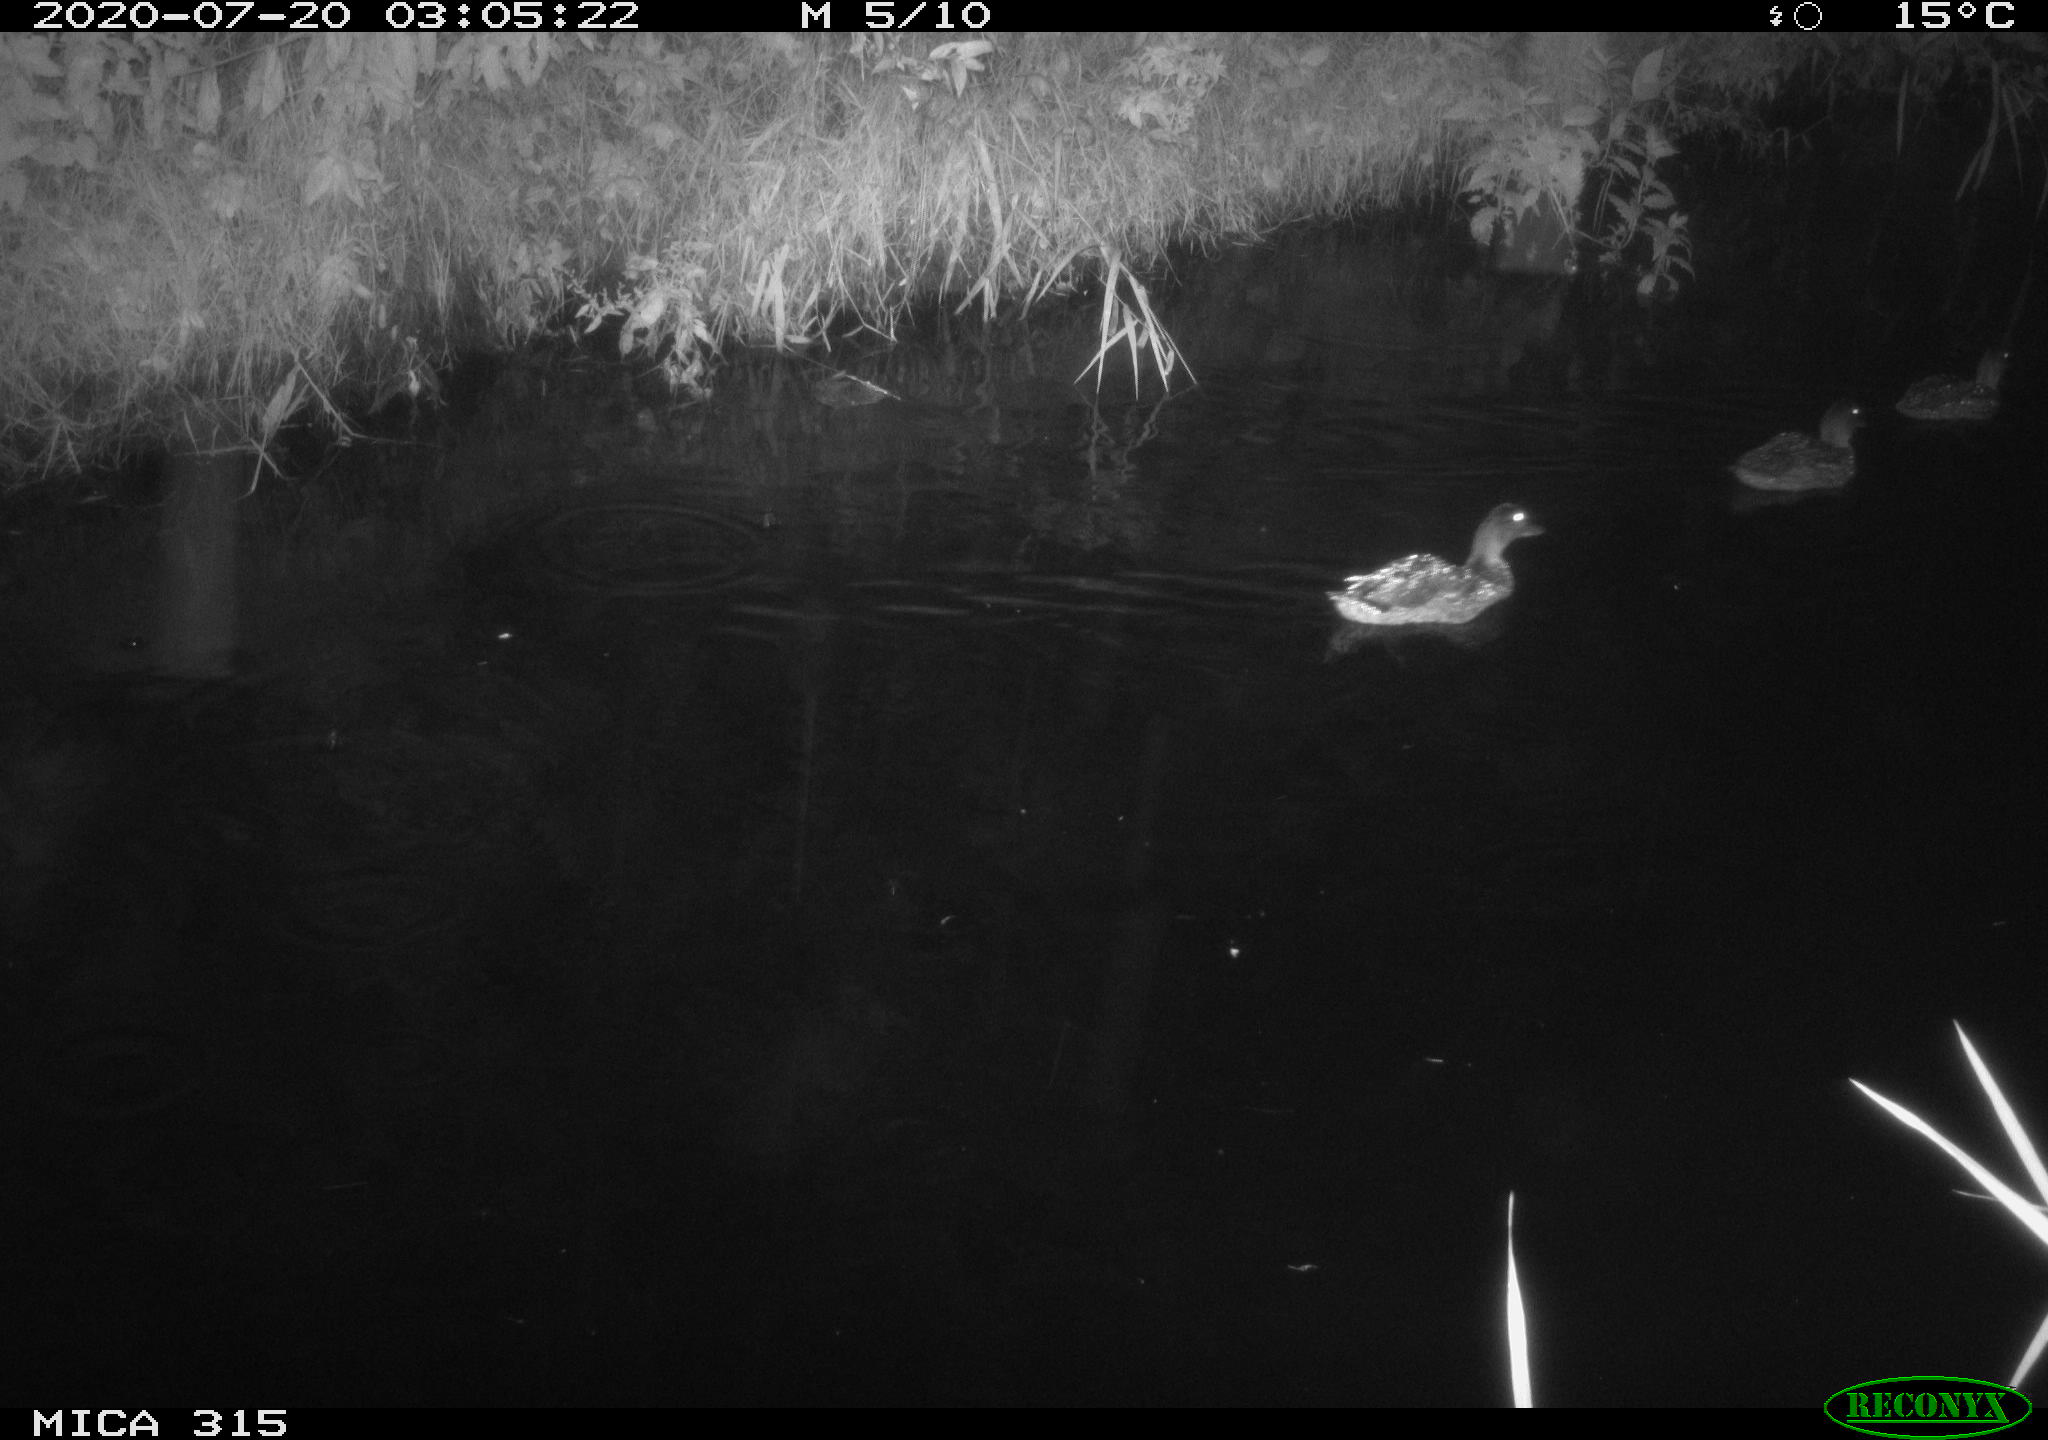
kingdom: Animalia
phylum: Chordata
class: Aves
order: Anseriformes
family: Anatidae
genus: Anas
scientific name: Anas platyrhynchos
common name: Mallard
